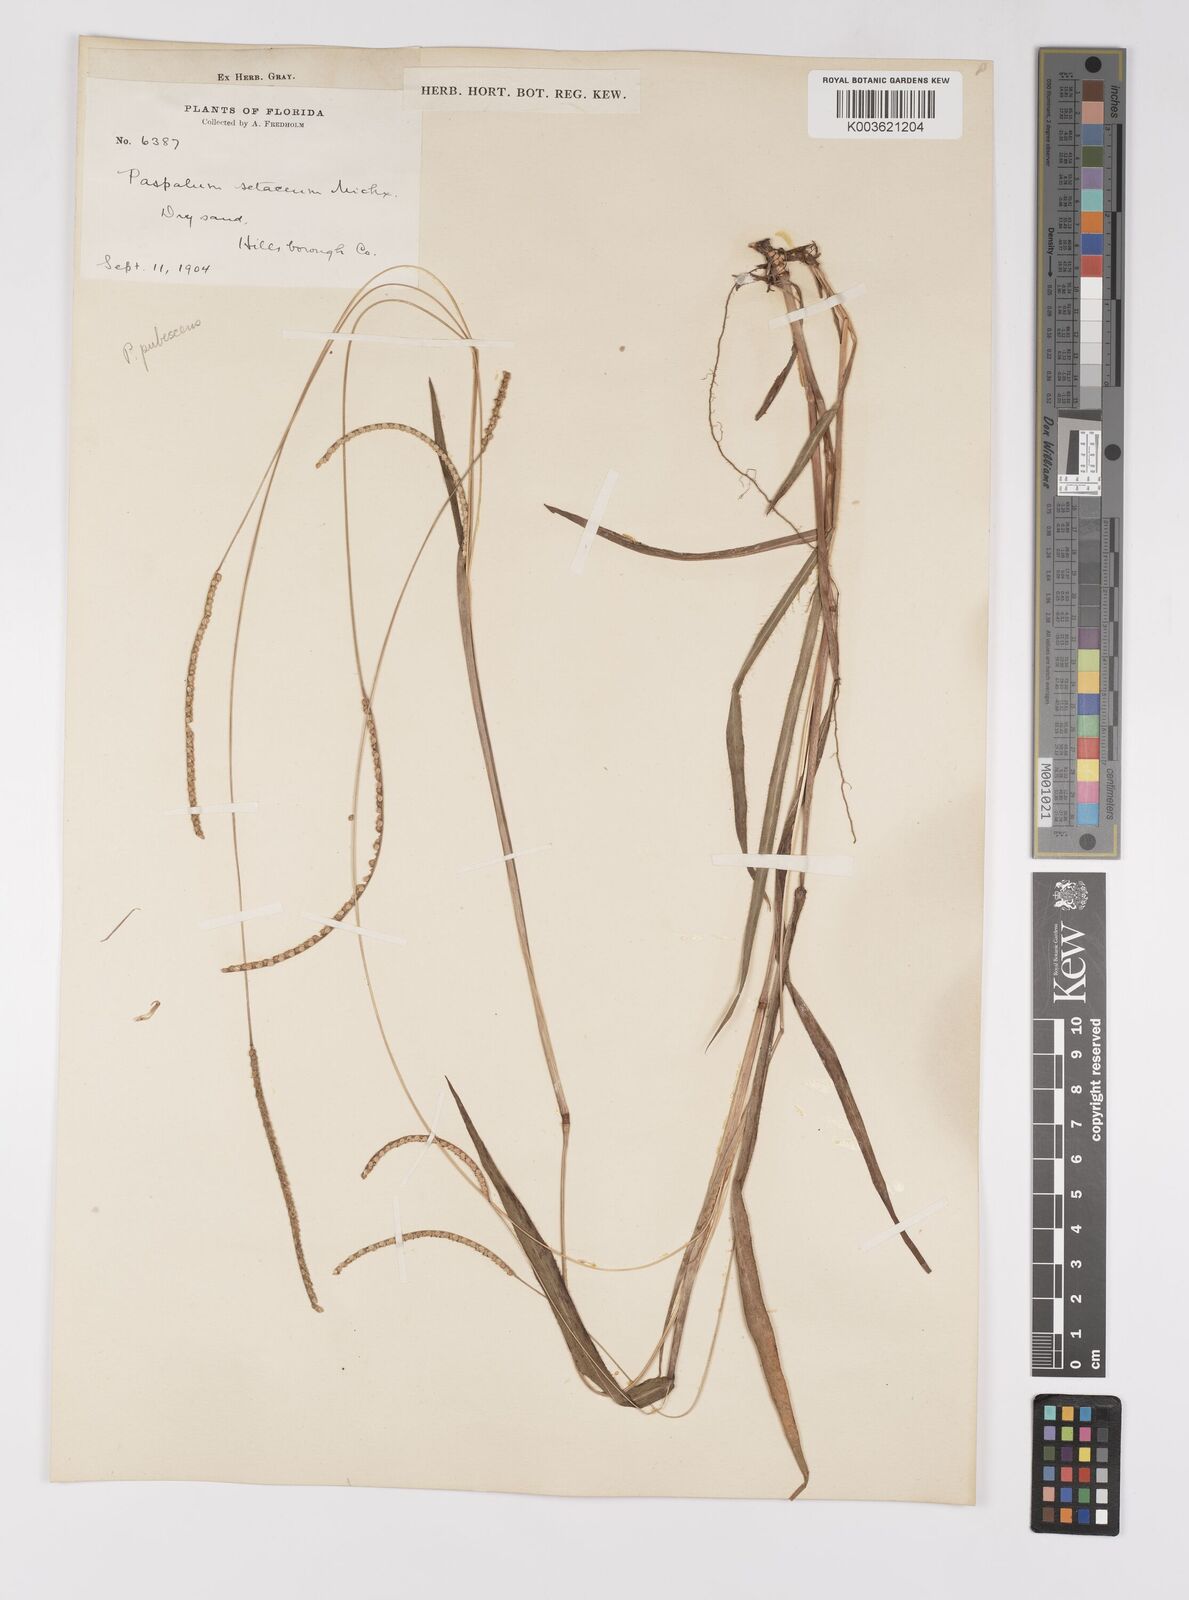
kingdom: Plantae
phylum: Tracheophyta
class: Liliopsida
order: Poales
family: Poaceae
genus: Paspalum
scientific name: Paspalum setaceum
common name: Slender paspalum
